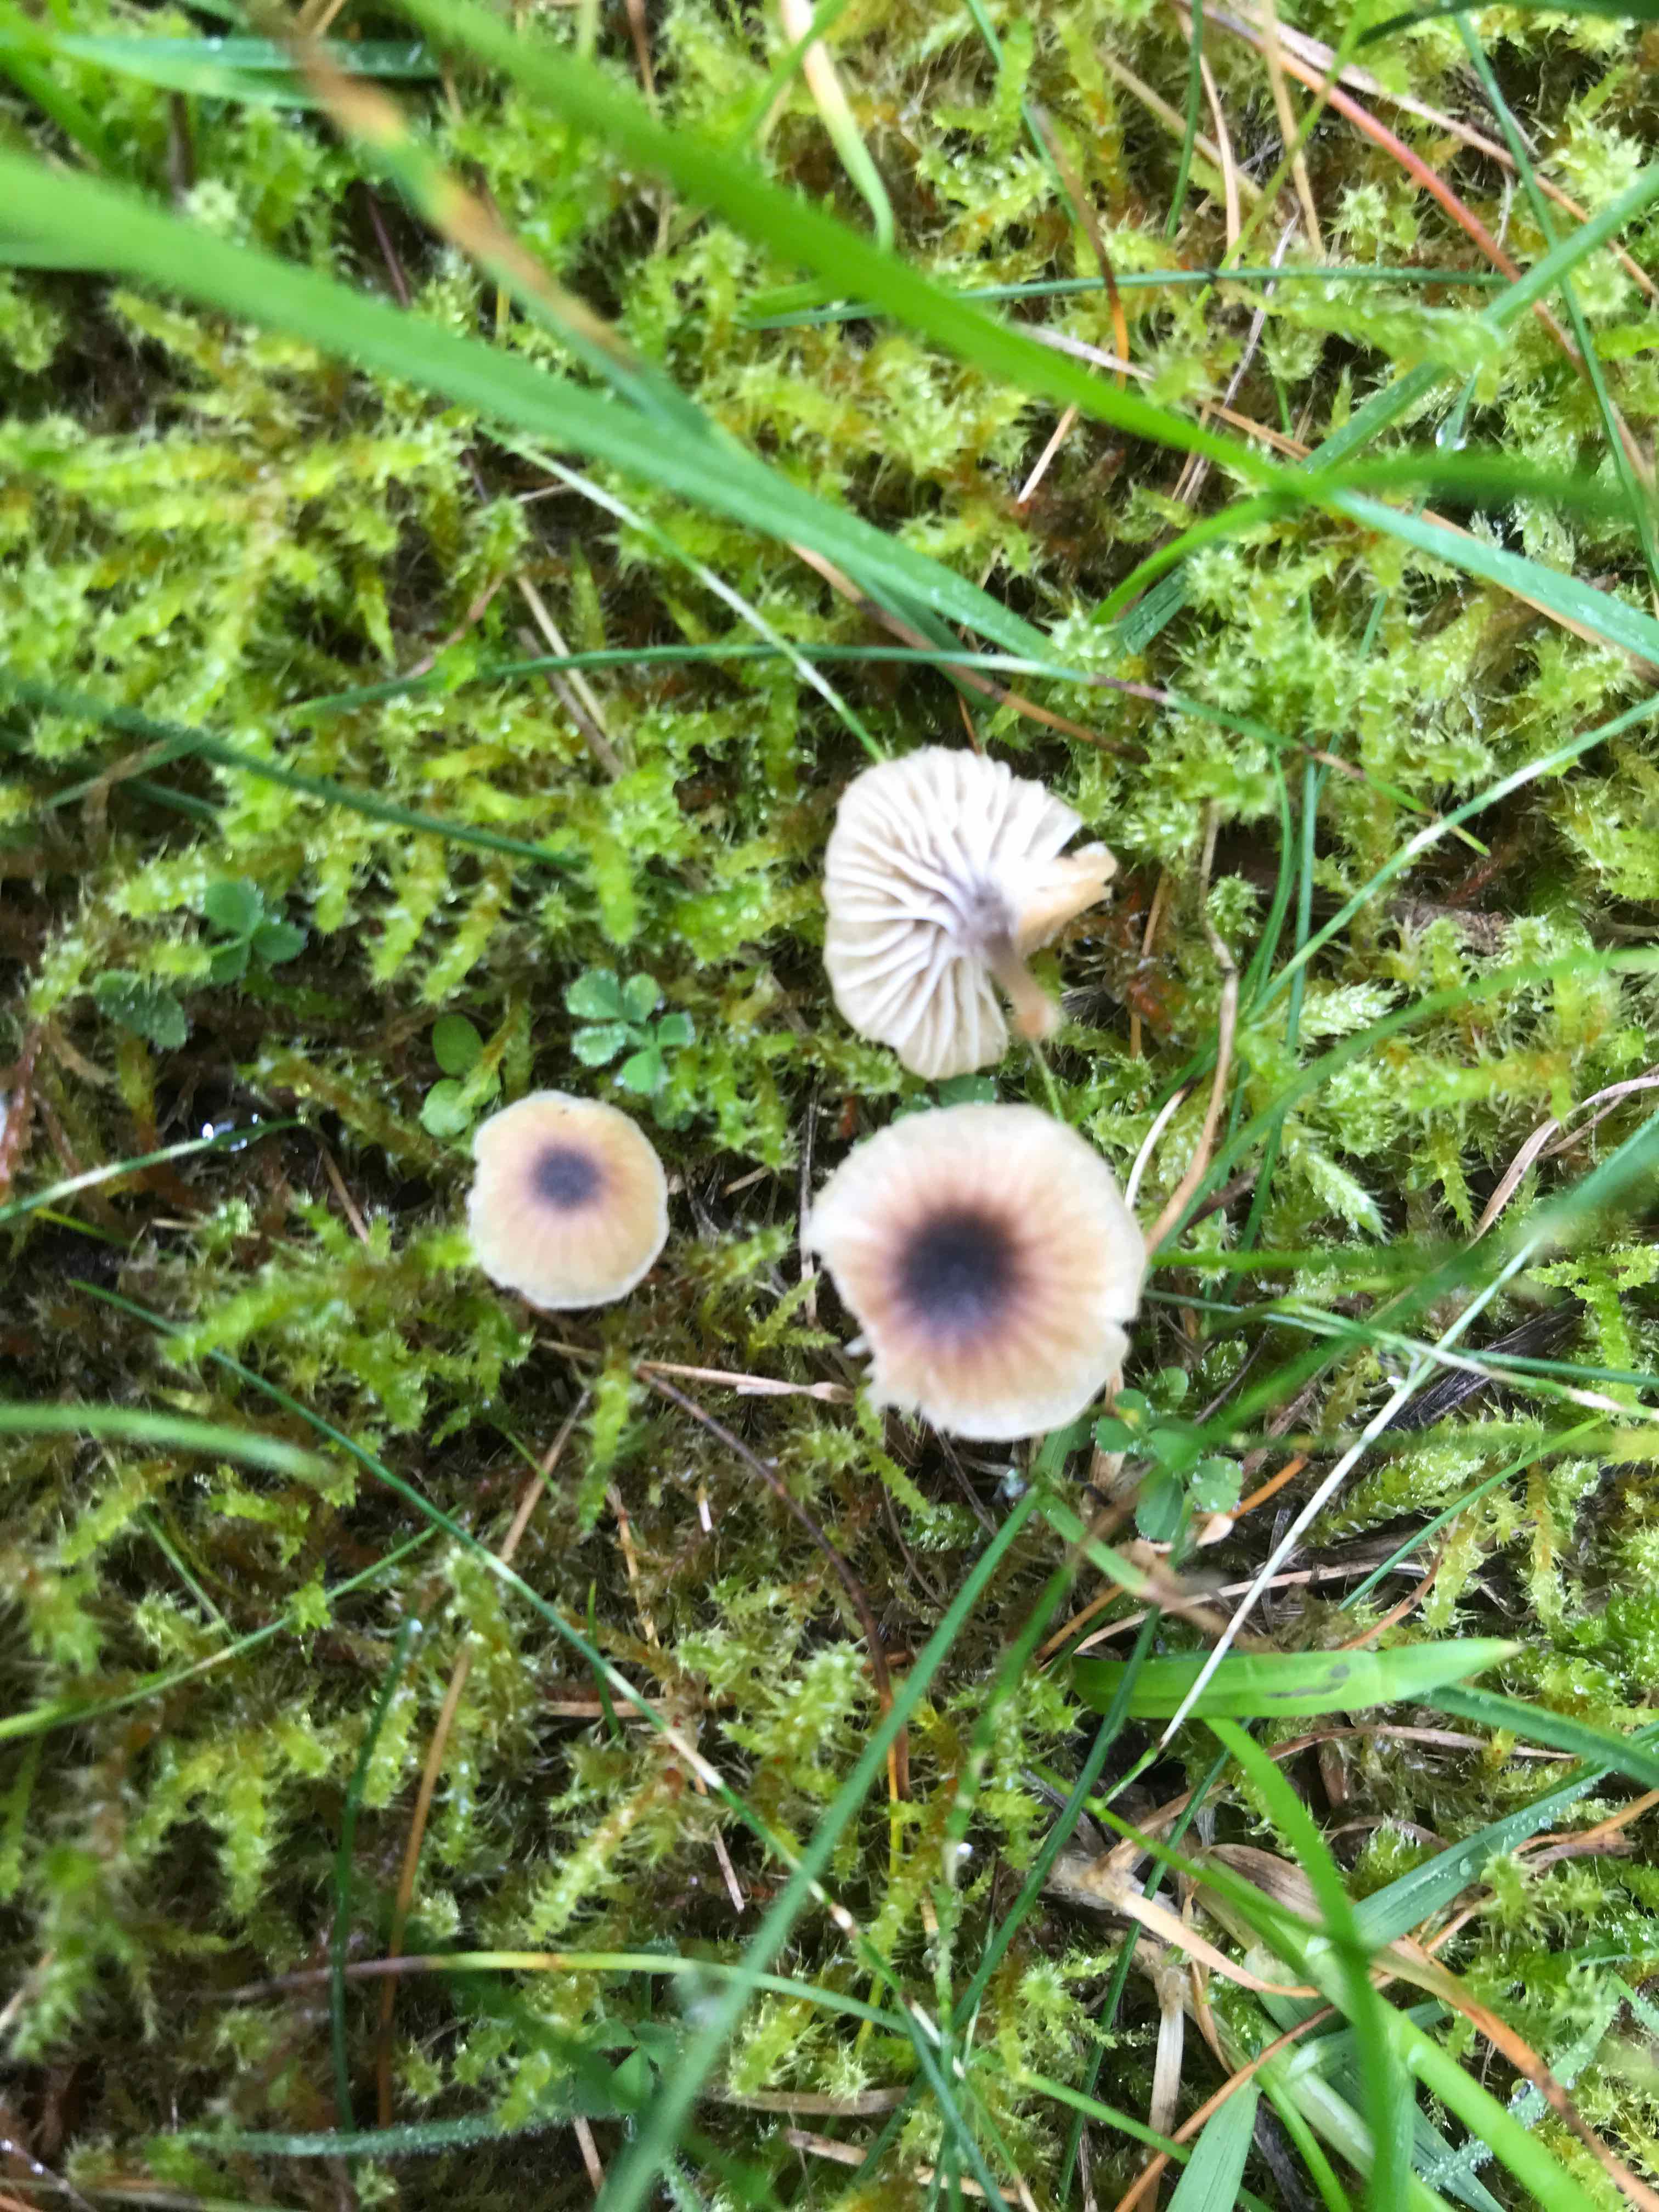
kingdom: Fungi
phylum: Basidiomycota
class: Agaricomycetes
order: Hymenochaetales
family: Rickenellaceae
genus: Rickenella
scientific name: Rickenella swartzii
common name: finstokket mosnavlehat
